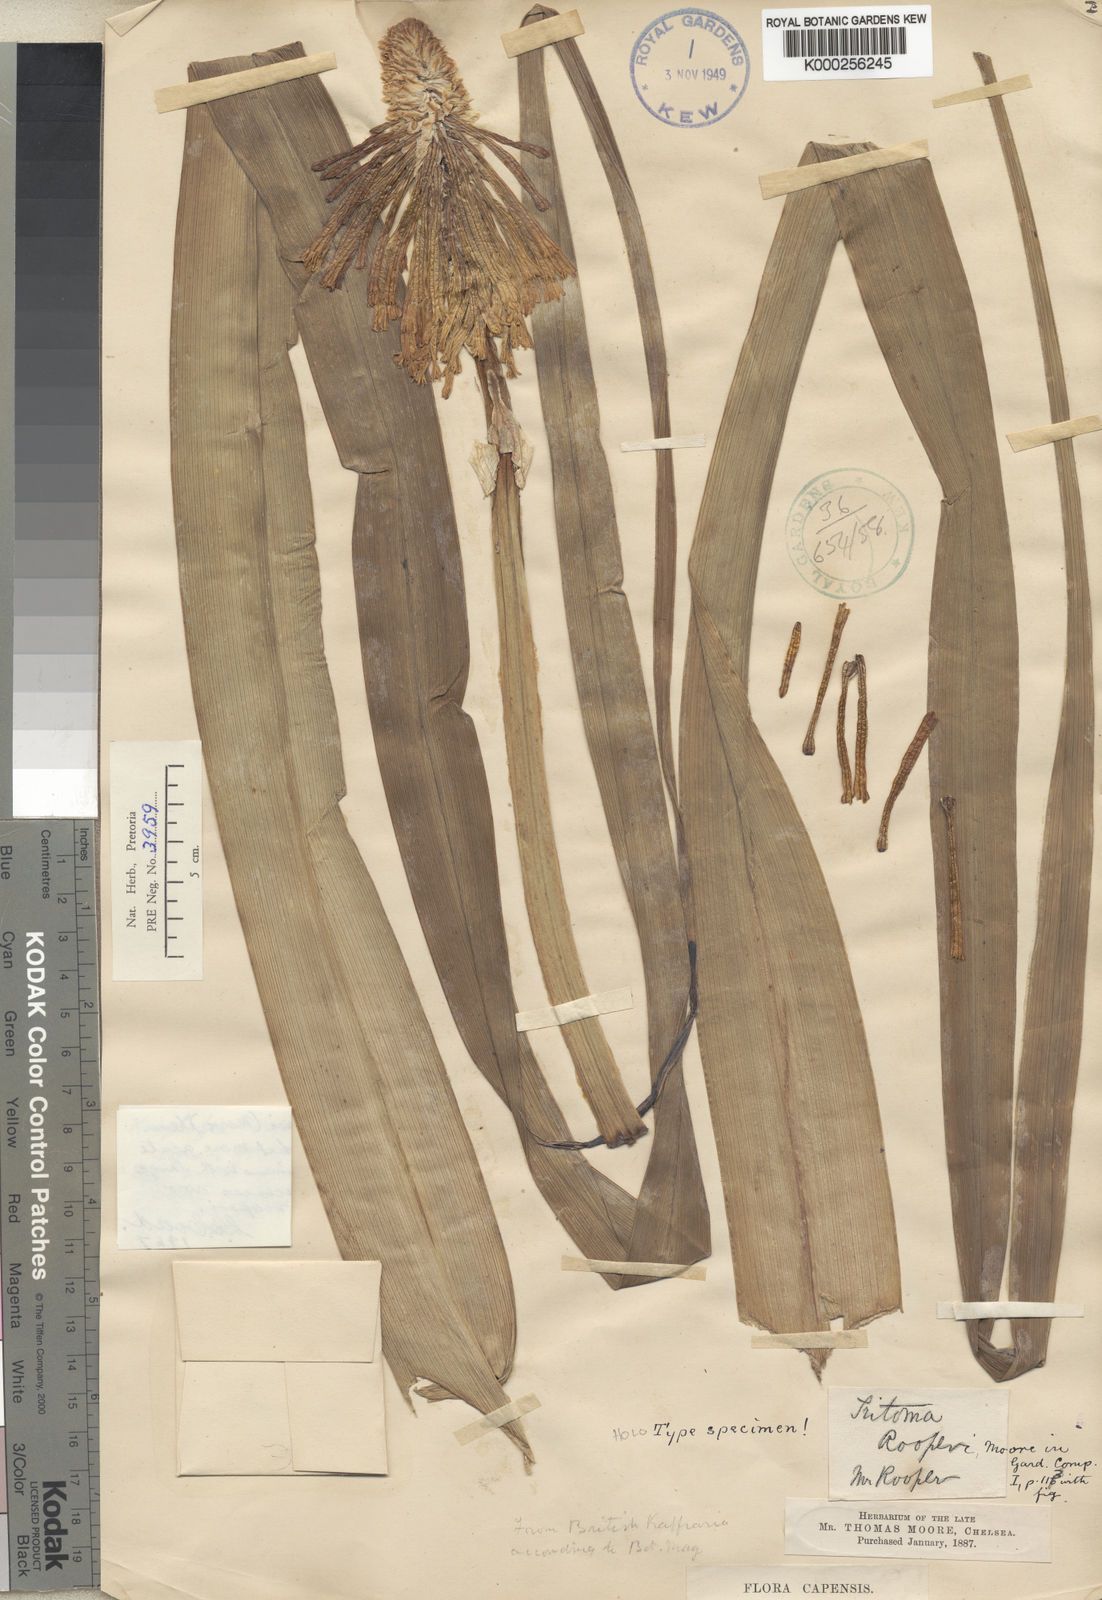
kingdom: Plantae
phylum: Tracheophyta
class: Liliopsida
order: Asparagales
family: Asphodelaceae
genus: Kniphofia
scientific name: Kniphofia rooperi
